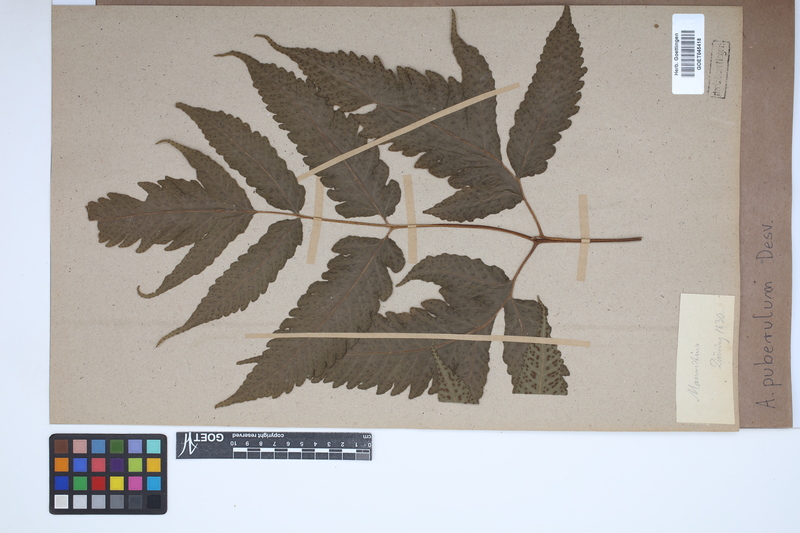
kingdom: Plantae
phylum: Tracheophyta
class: Polypodiopsida
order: Polypodiales
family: Tectariaceae
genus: Tectaria
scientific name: Tectaria puberula
